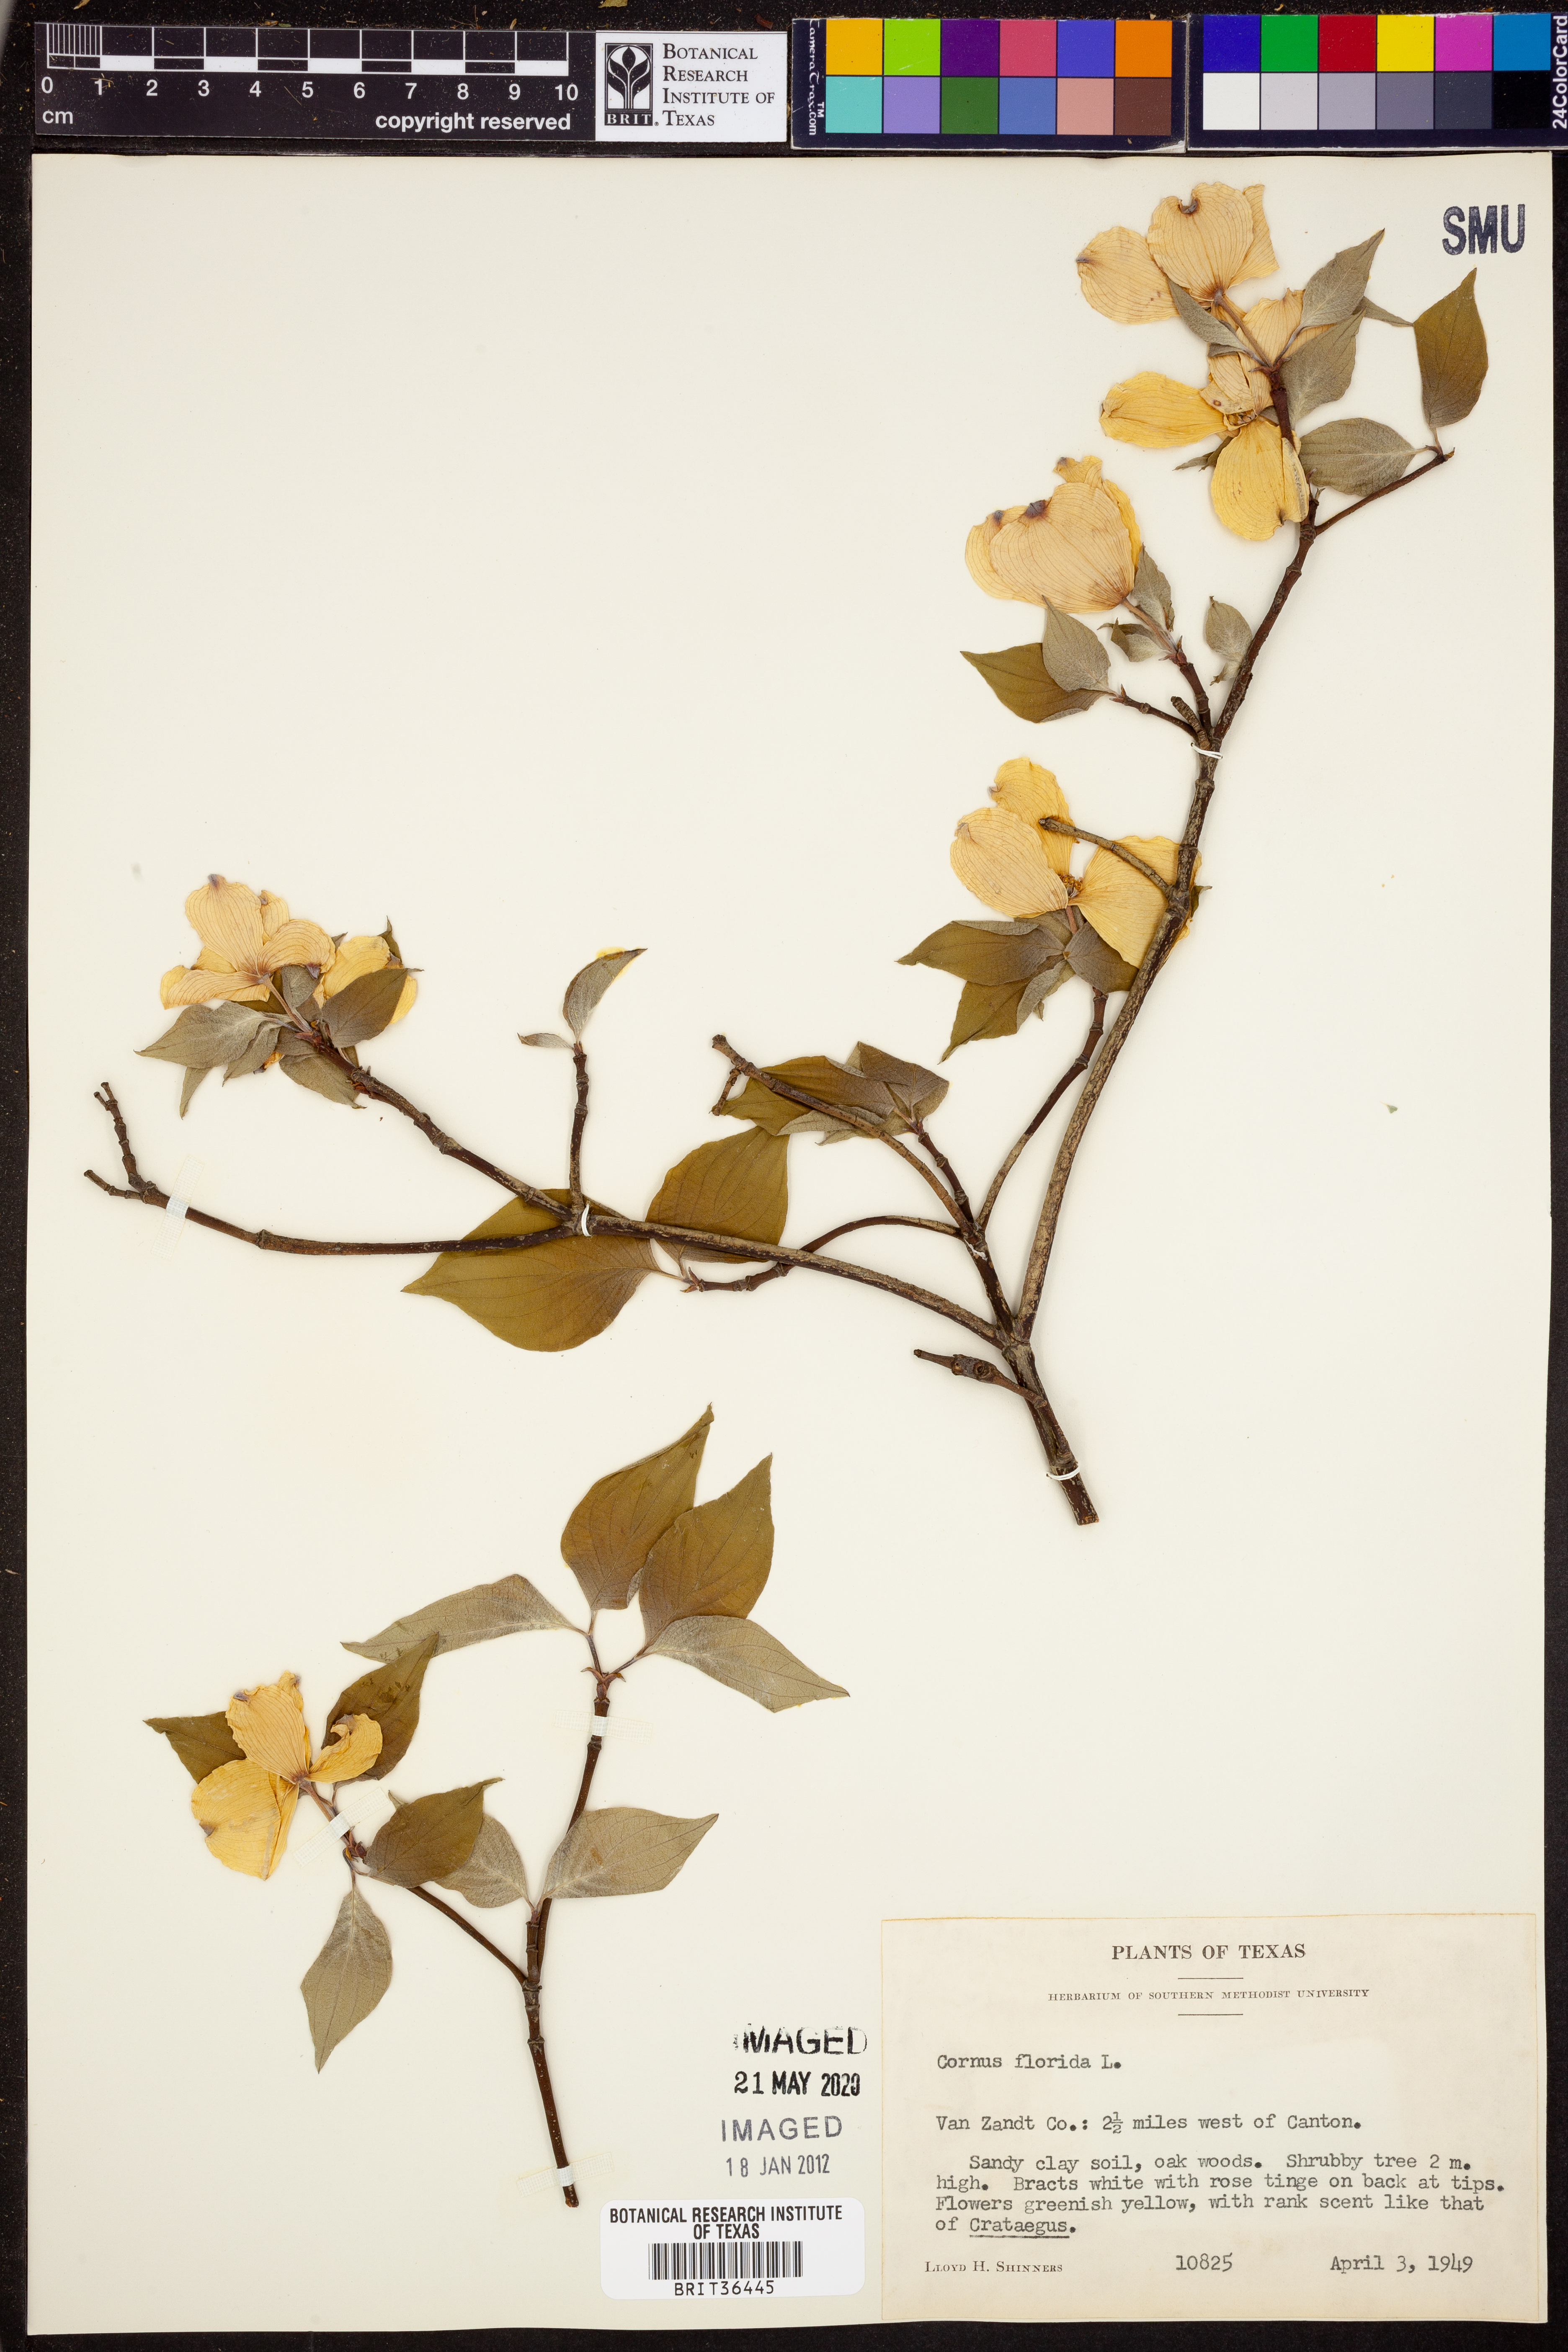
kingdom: Plantae
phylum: Tracheophyta
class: Magnoliopsida
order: Cornales
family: Cornaceae
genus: Cornus
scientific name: Cornus florida
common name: Flowering dogwood
